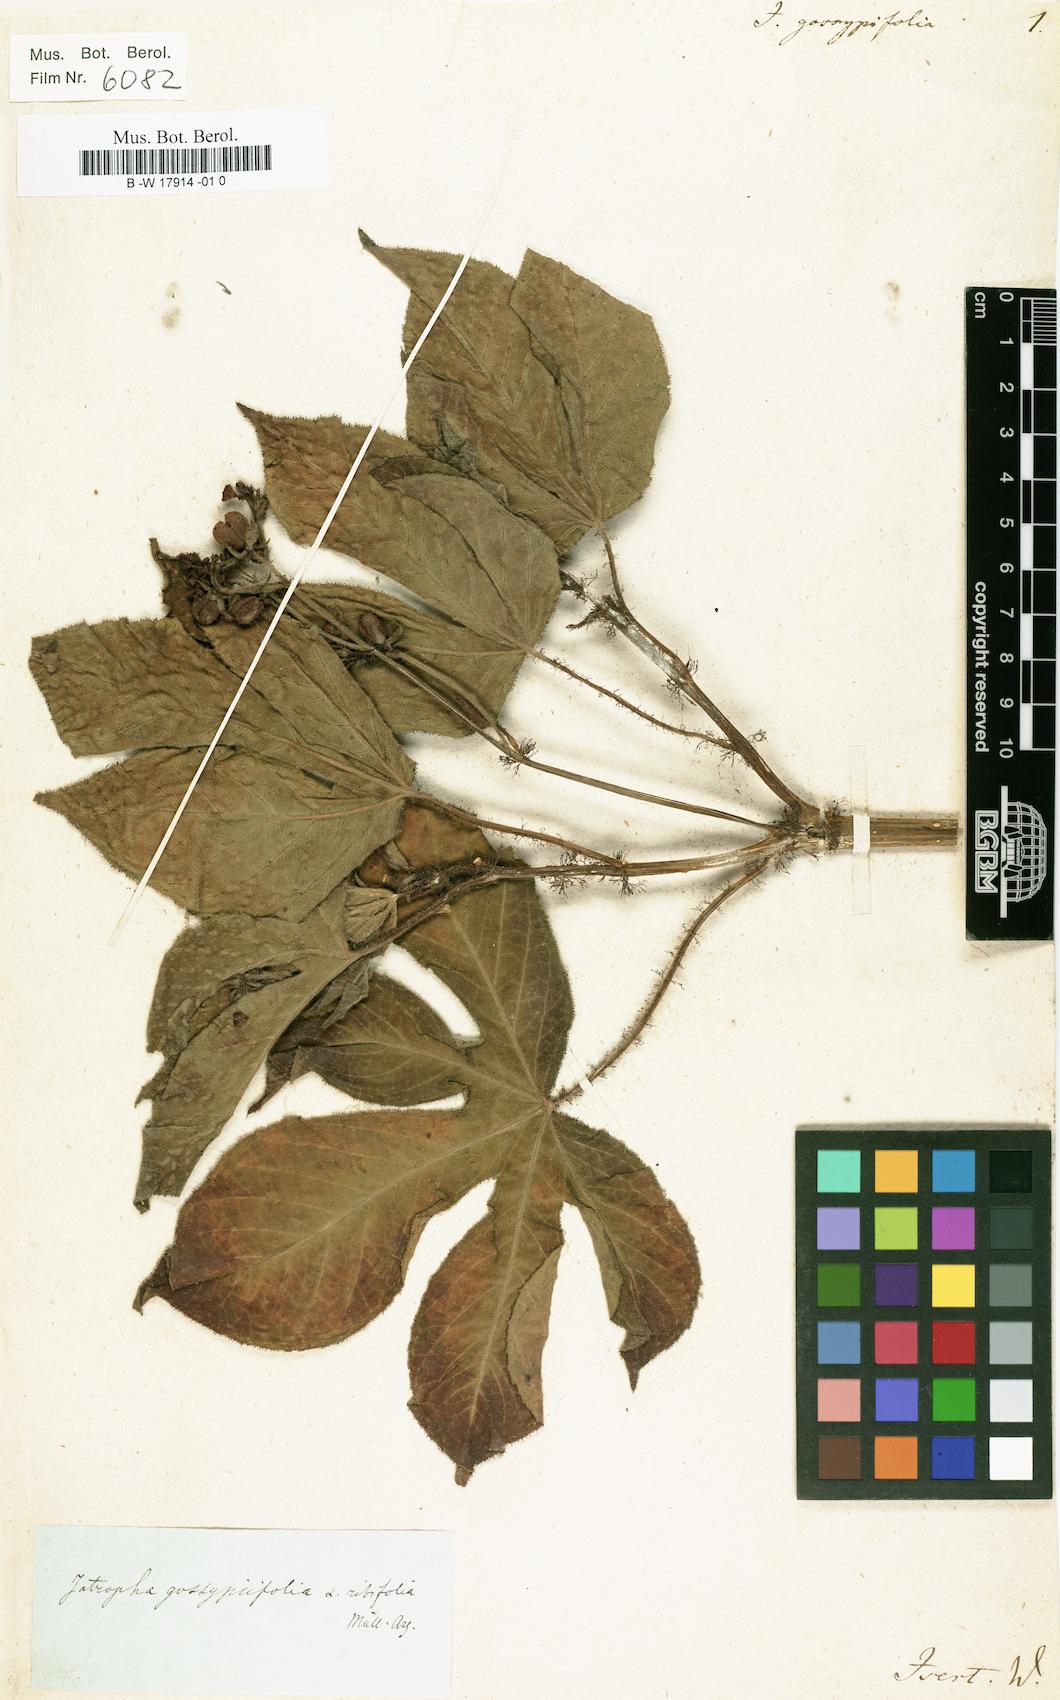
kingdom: Plantae
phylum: Tracheophyta
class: Magnoliopsida
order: Malpighiales
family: Euphorbiaceae
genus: Jatropha
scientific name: Jatropha gossypiifolia
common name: Bellyache bush
